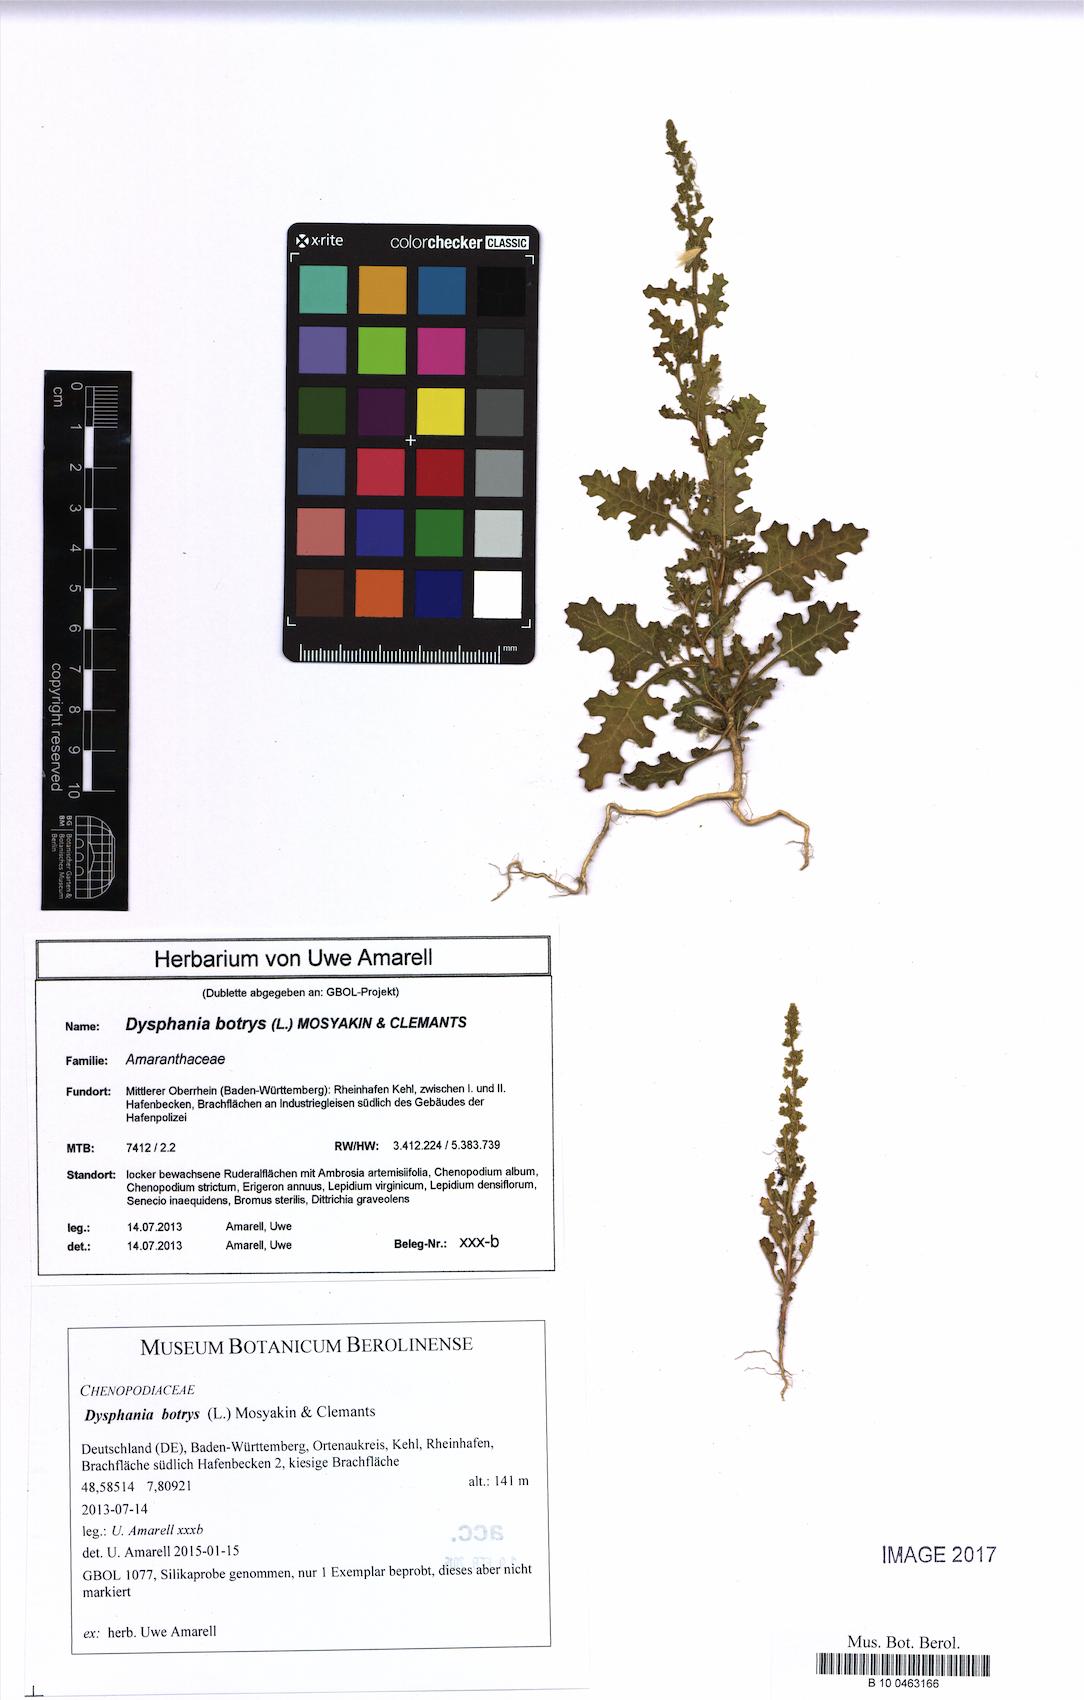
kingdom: Plantae
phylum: Tracheophyta
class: Magnoliopsida
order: Caryophyllales
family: Amaranthaceae
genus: Dysphania
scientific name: Dysphania botrys
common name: Feather-geranium
